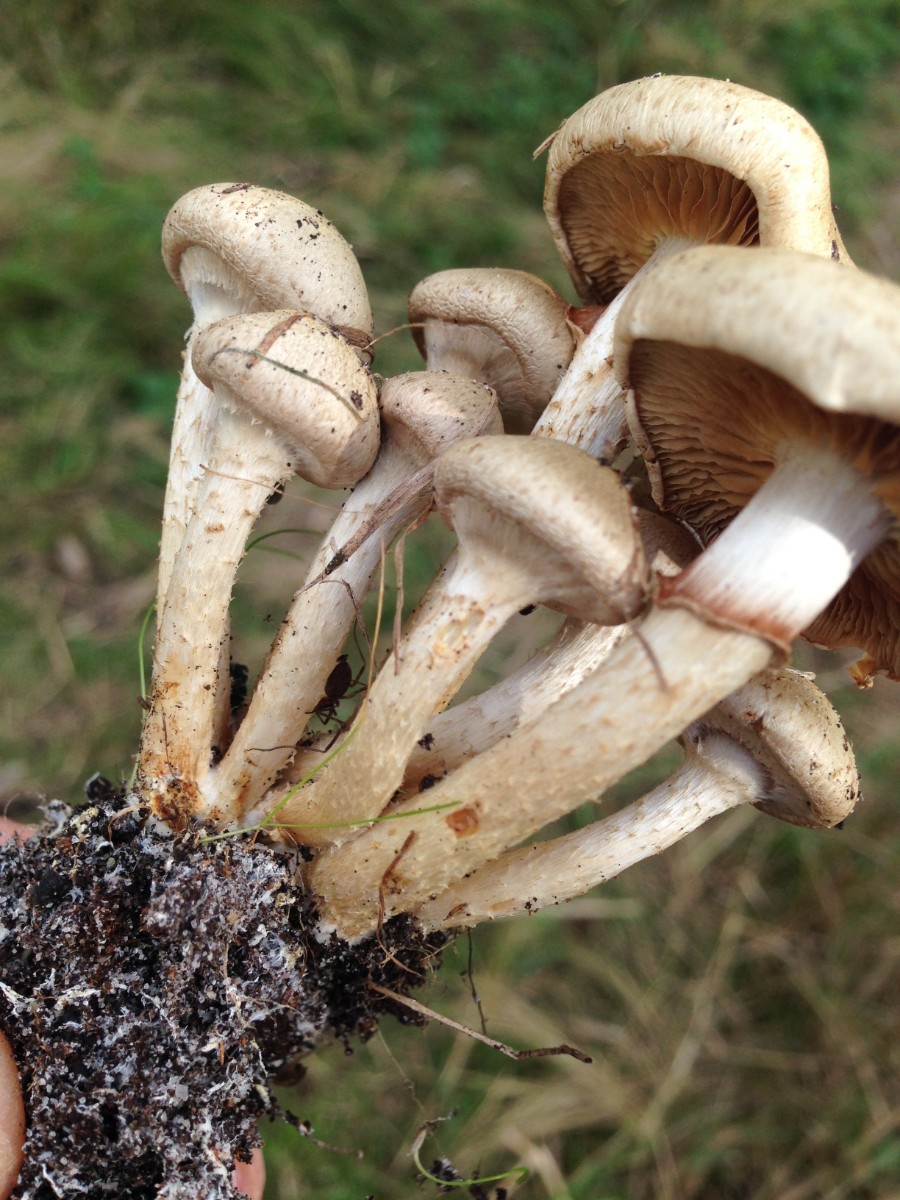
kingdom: Fungi
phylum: Basidiomycota
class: Agaricomycetes
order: Agaricales
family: Strophariaceae
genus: Pholiota
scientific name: Pholiota gummosa
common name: grøngul skælhat
